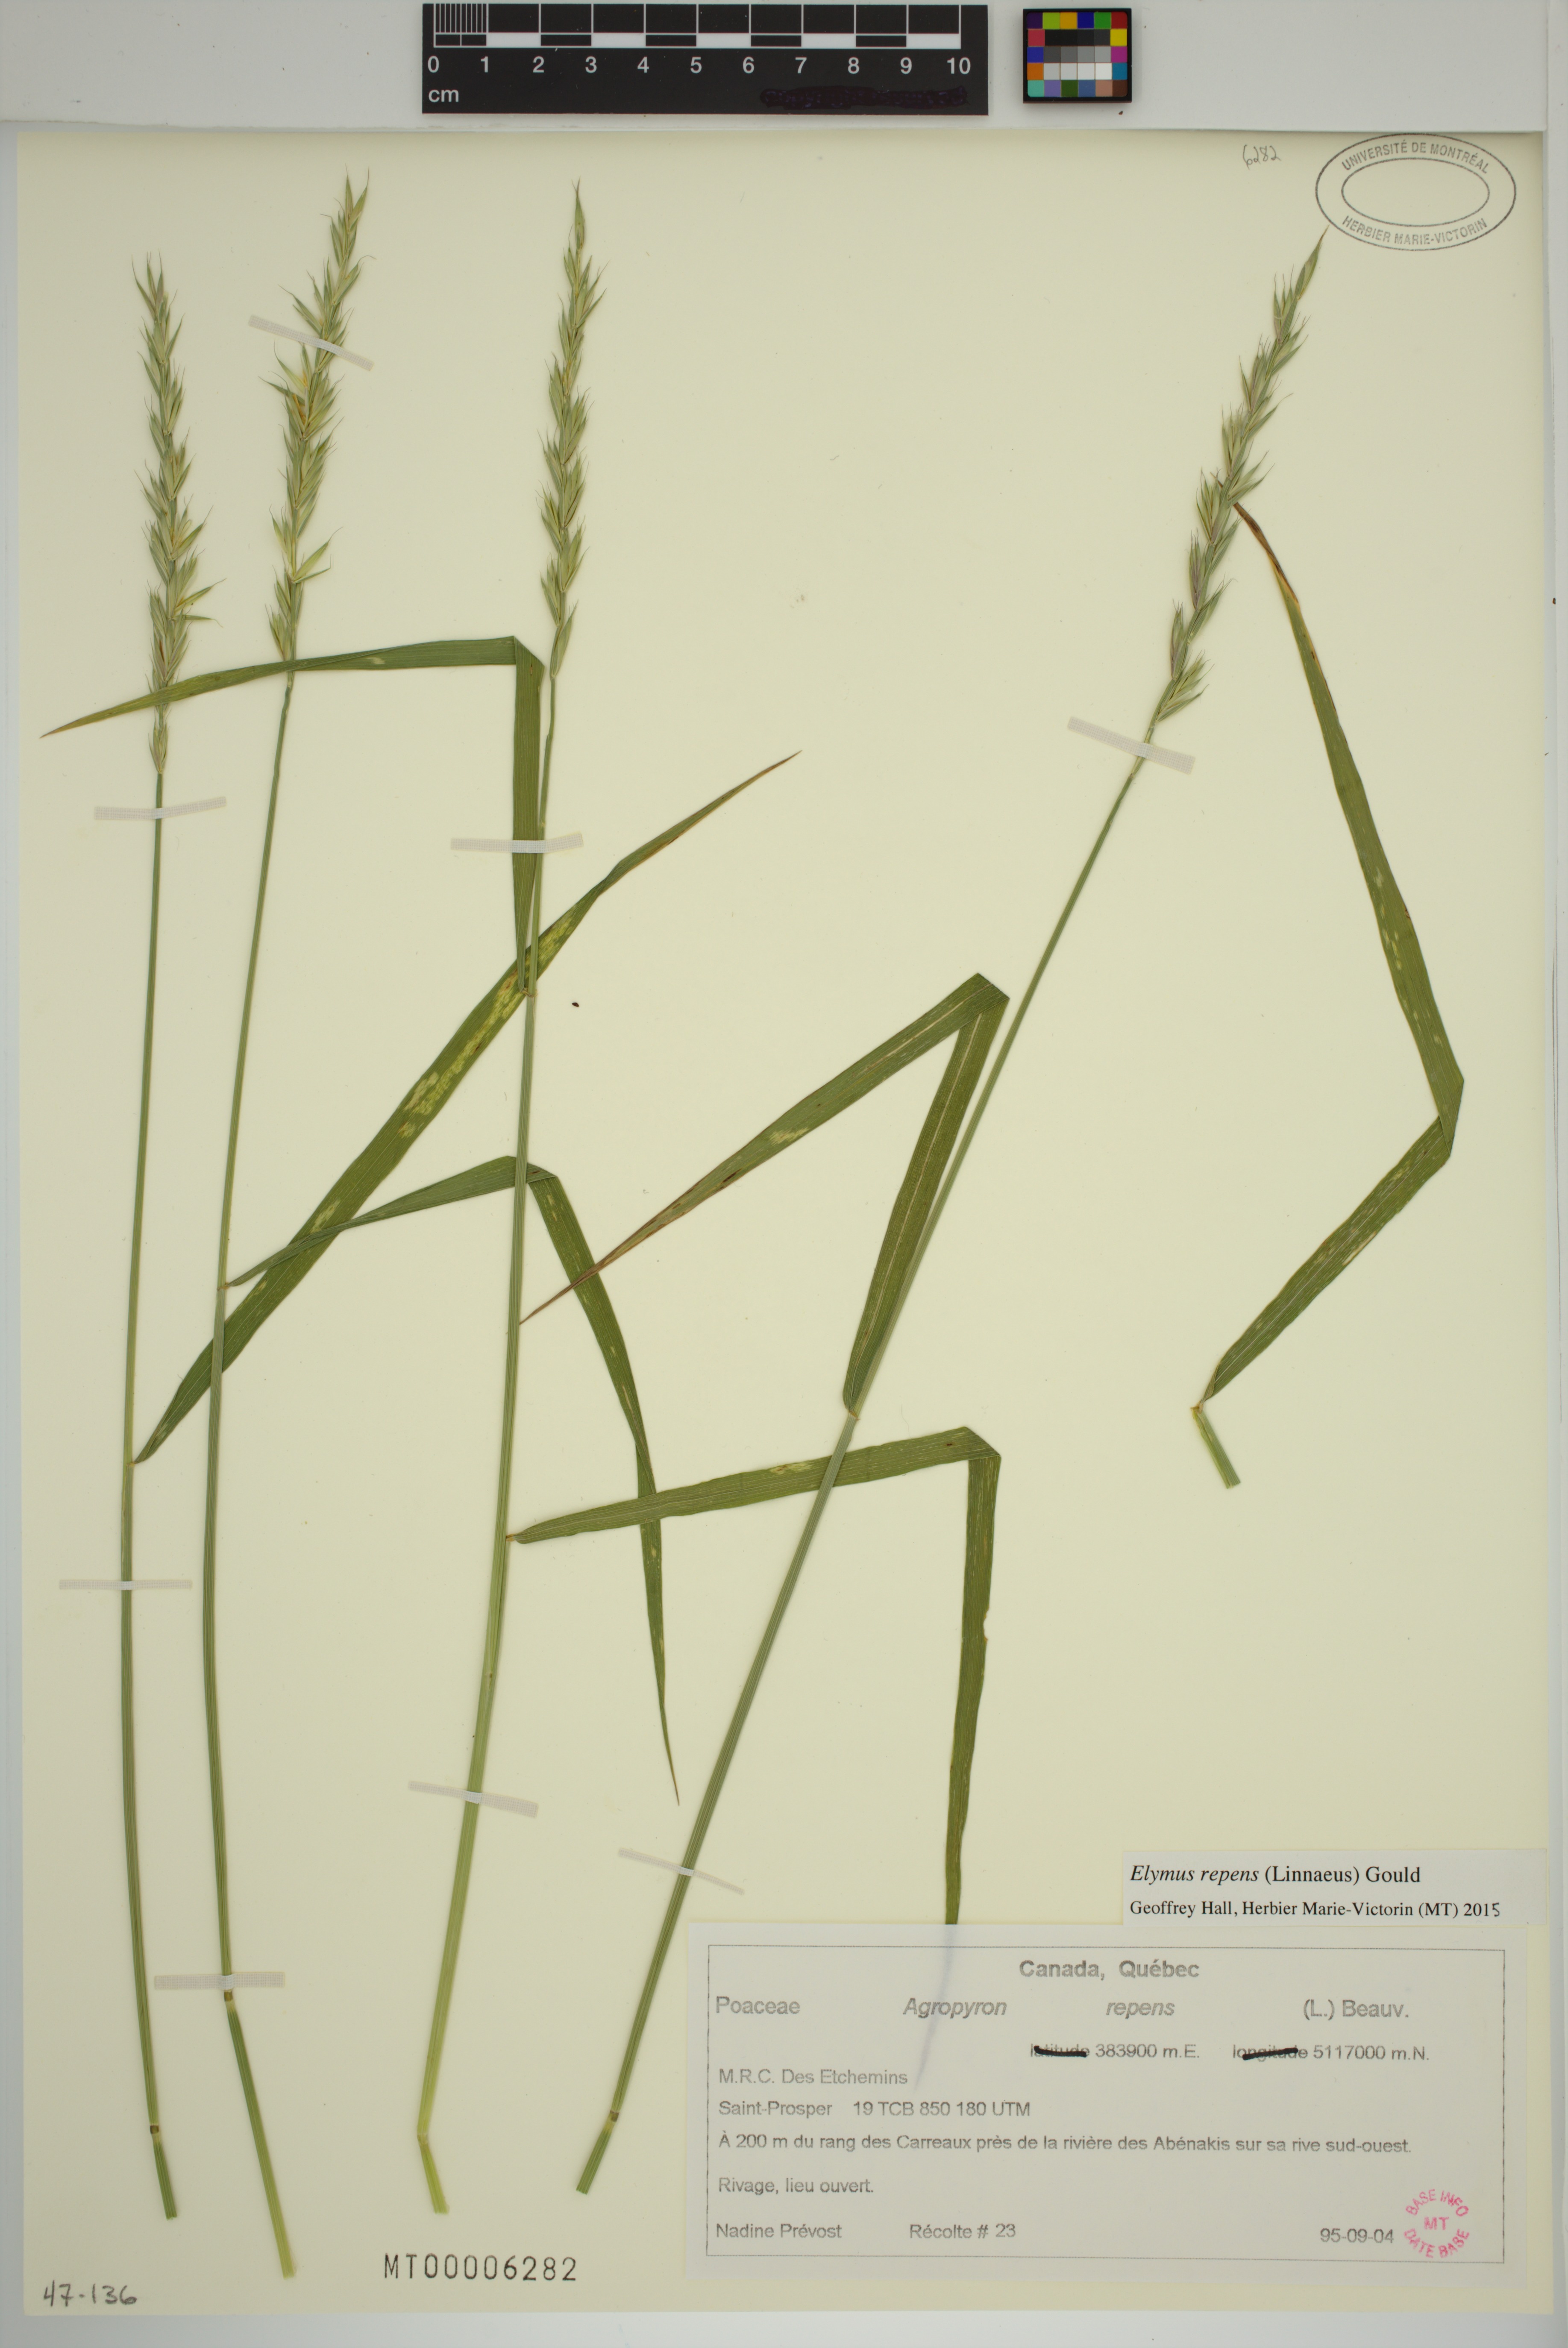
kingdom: Plantae
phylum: Tracheophyta
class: Liliopsida
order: Poales
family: Poaceae
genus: Elymus
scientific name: Elymus repens
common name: Quackgrass
